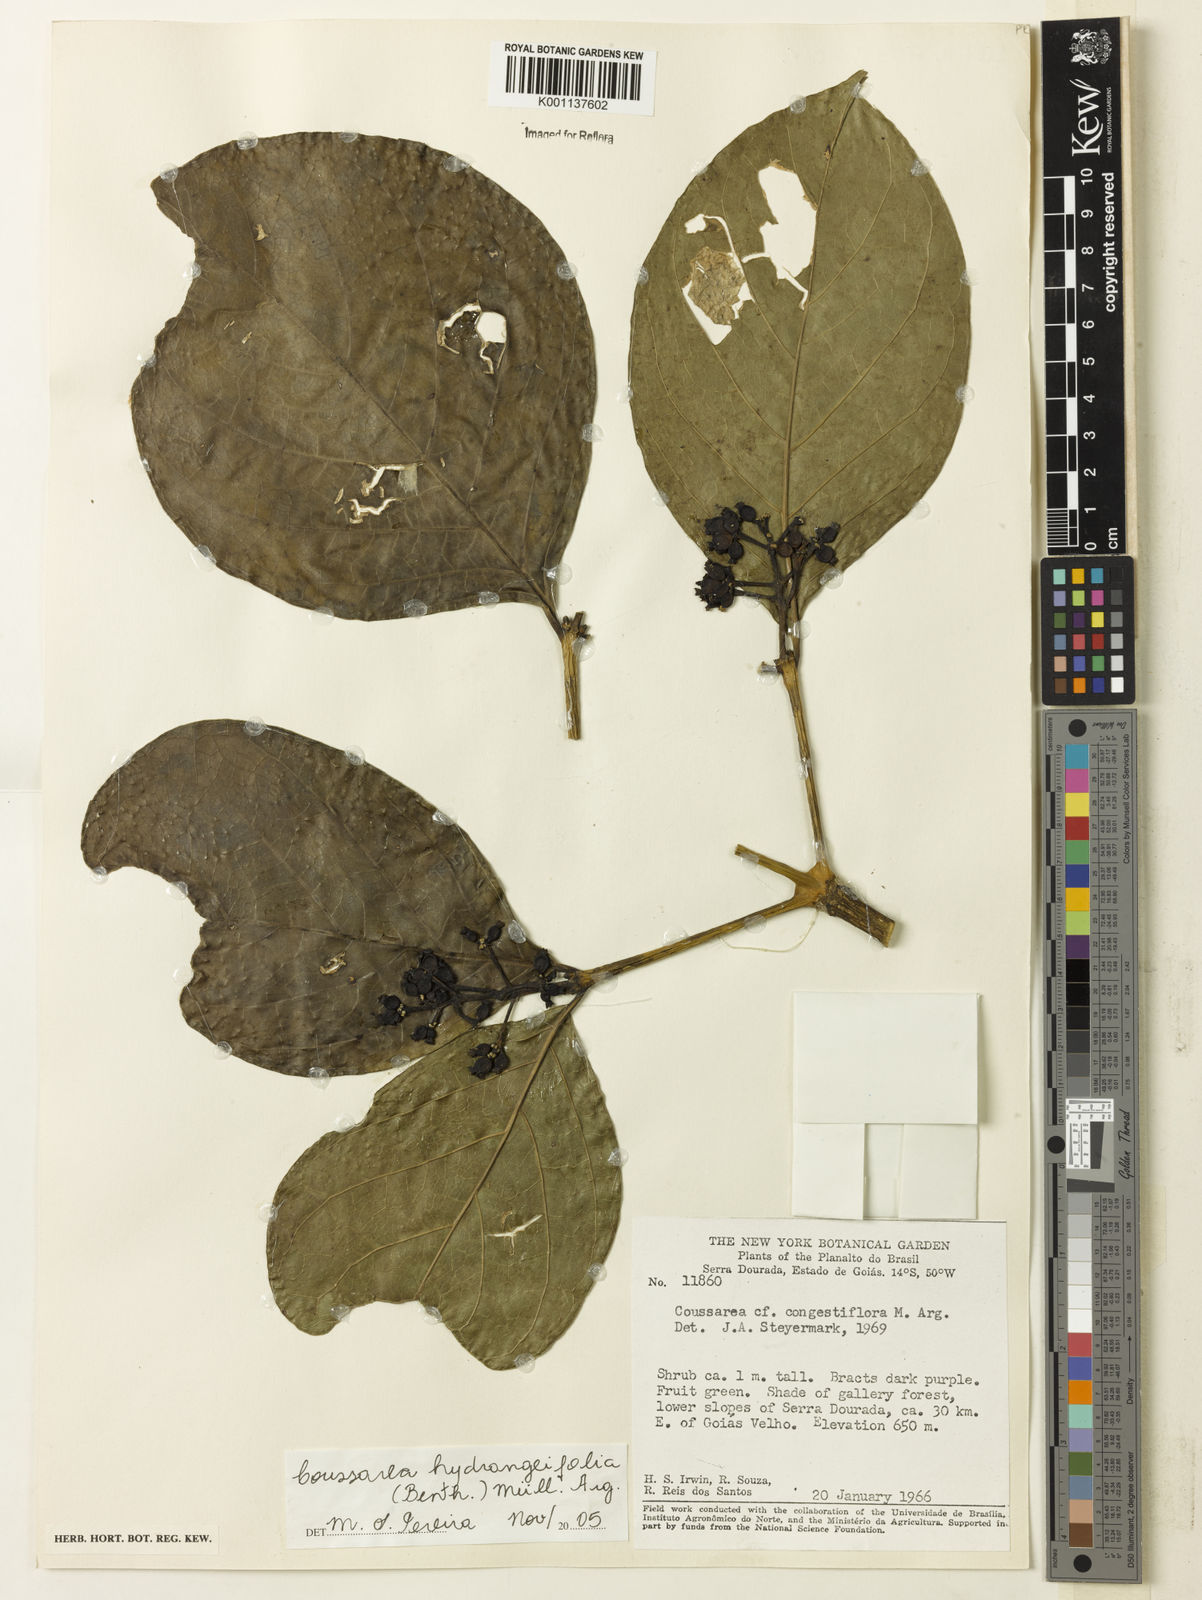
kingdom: Plantae
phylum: Tracheophyta
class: Magnoliopsida
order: Gentianales
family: Rubiaceae
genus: Coussarea
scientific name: Coussarea
